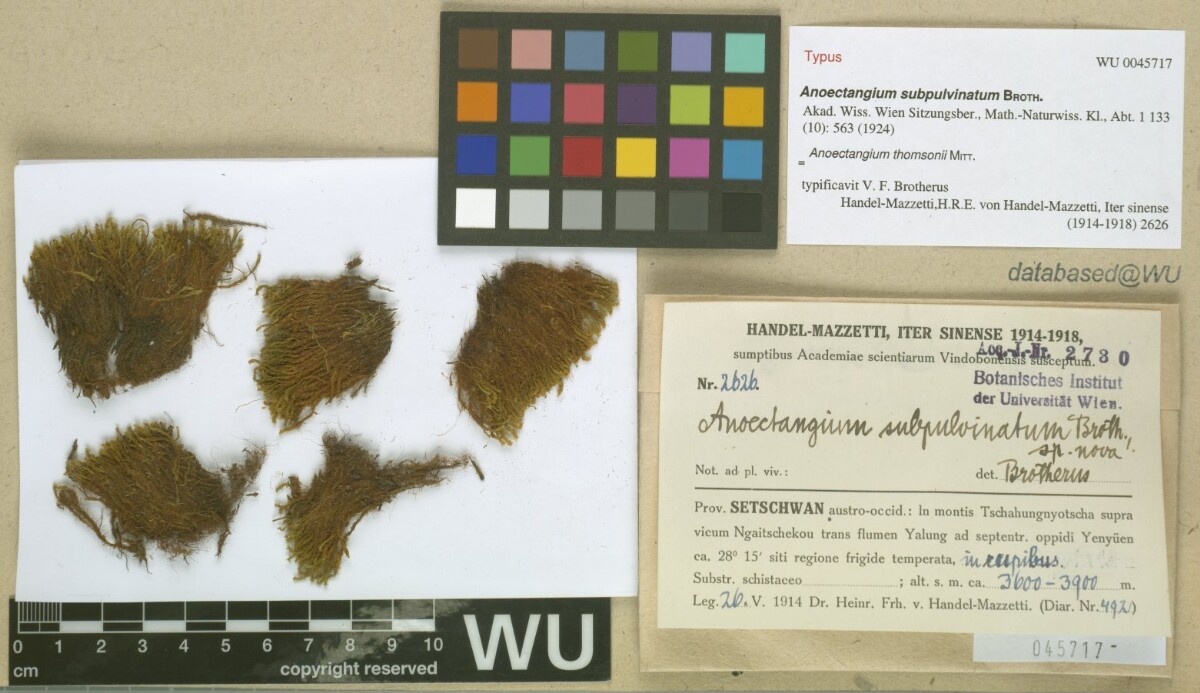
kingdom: Plantae
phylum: Bryophyta
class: Bryopsida
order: Pottiales
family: Pottiaceae
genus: Anoectangium
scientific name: Anoectangium thomsonii
